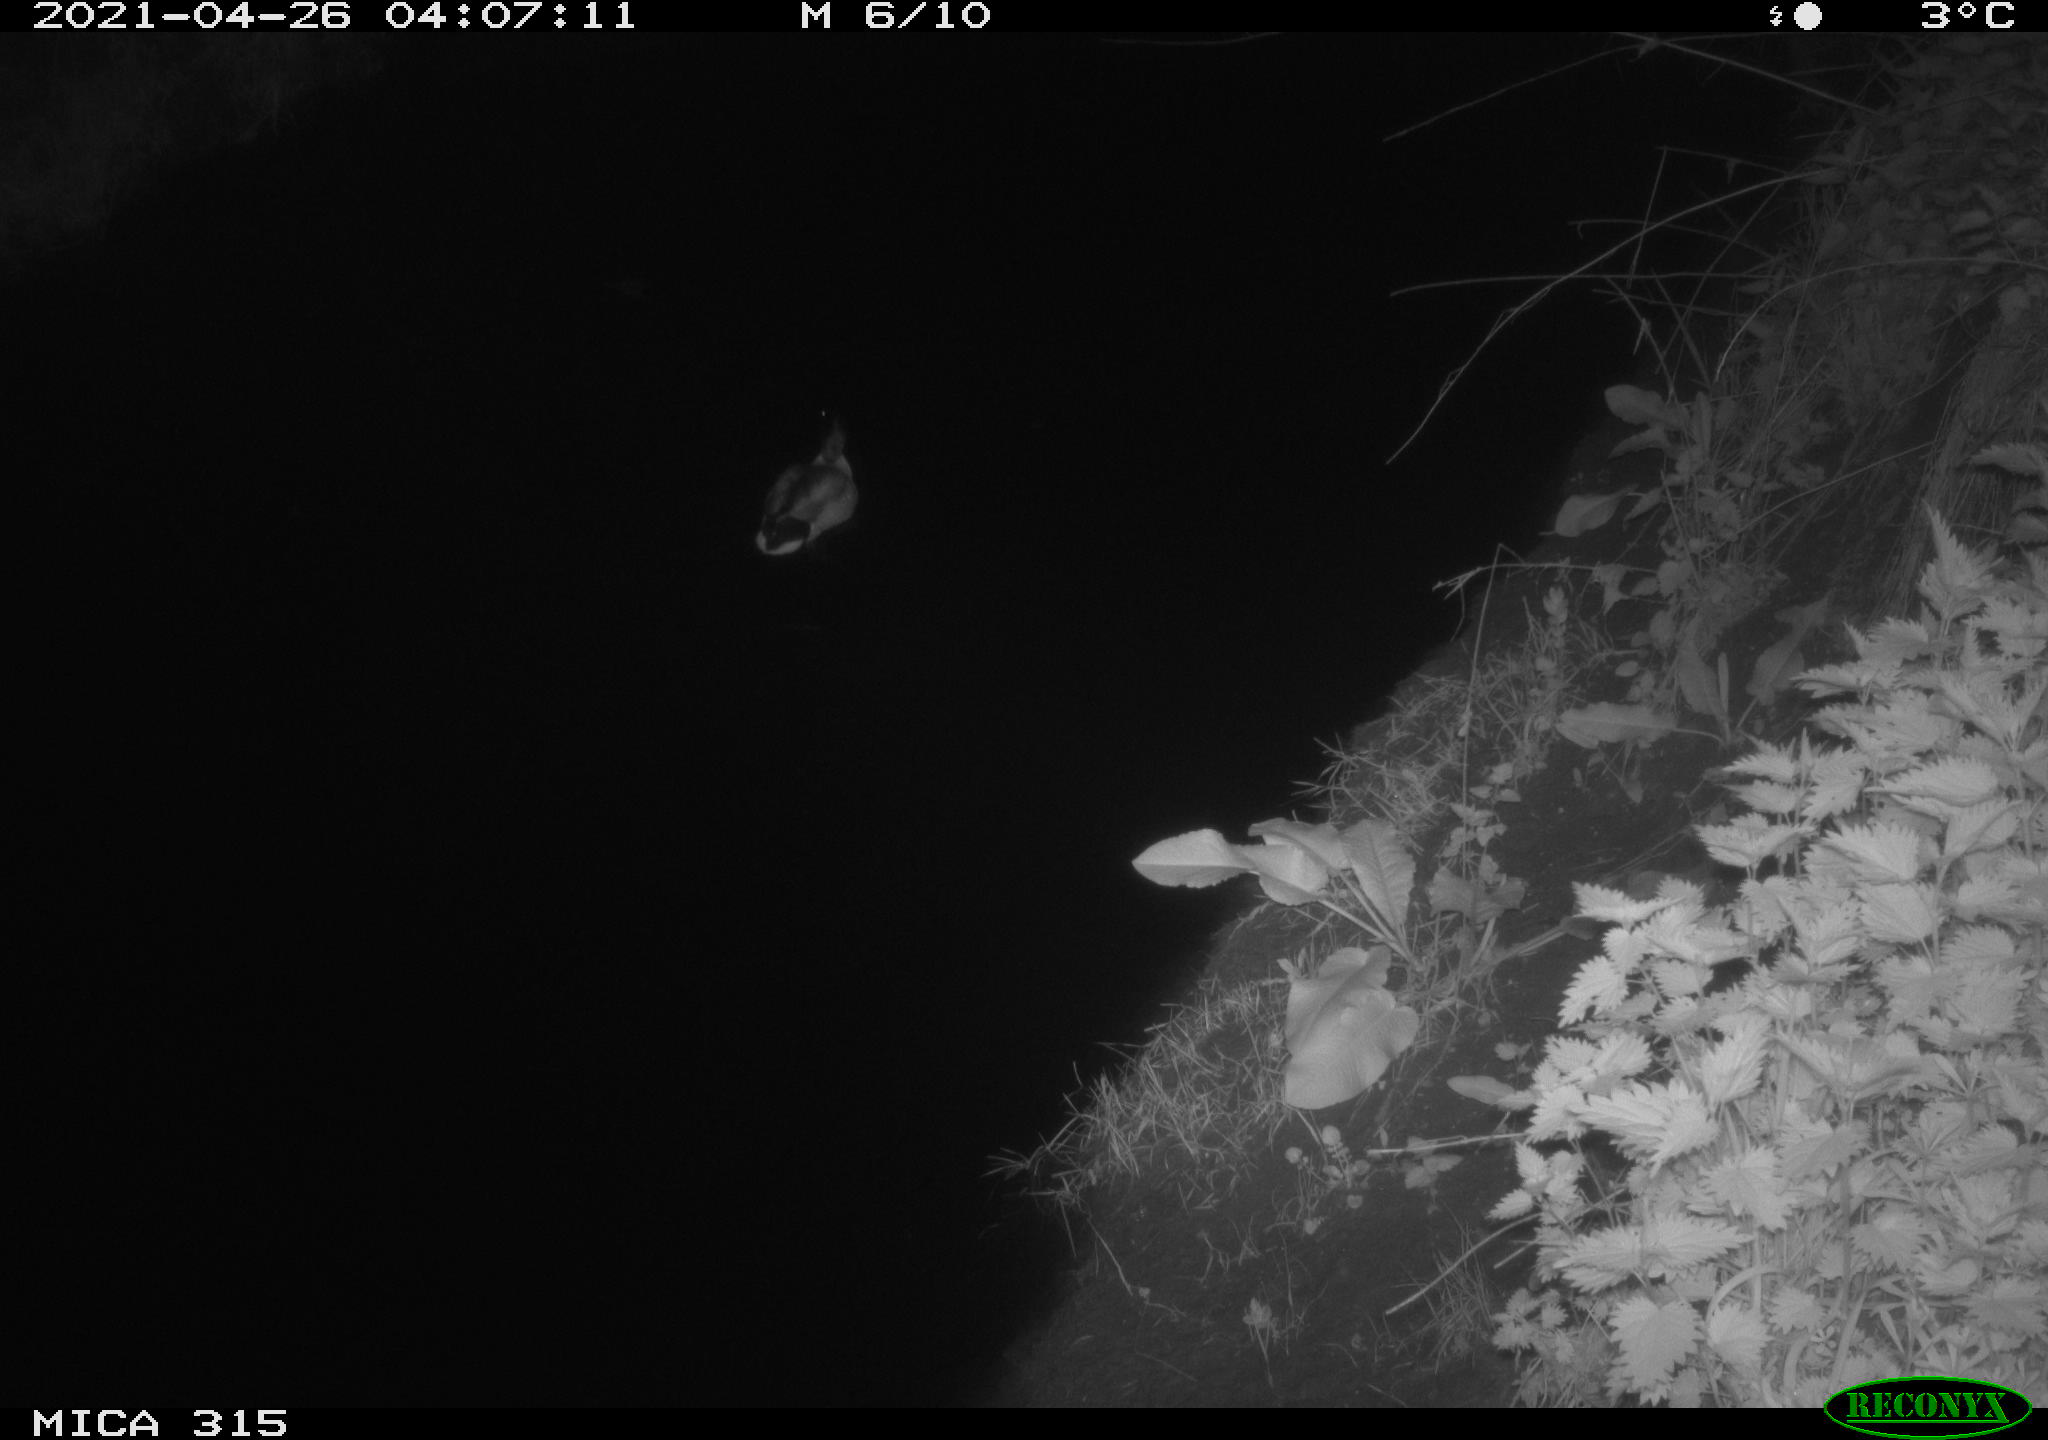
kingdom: Animalia
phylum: Chordata
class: Aves
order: Anseriformes
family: Anatidae
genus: Anas
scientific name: Anas
